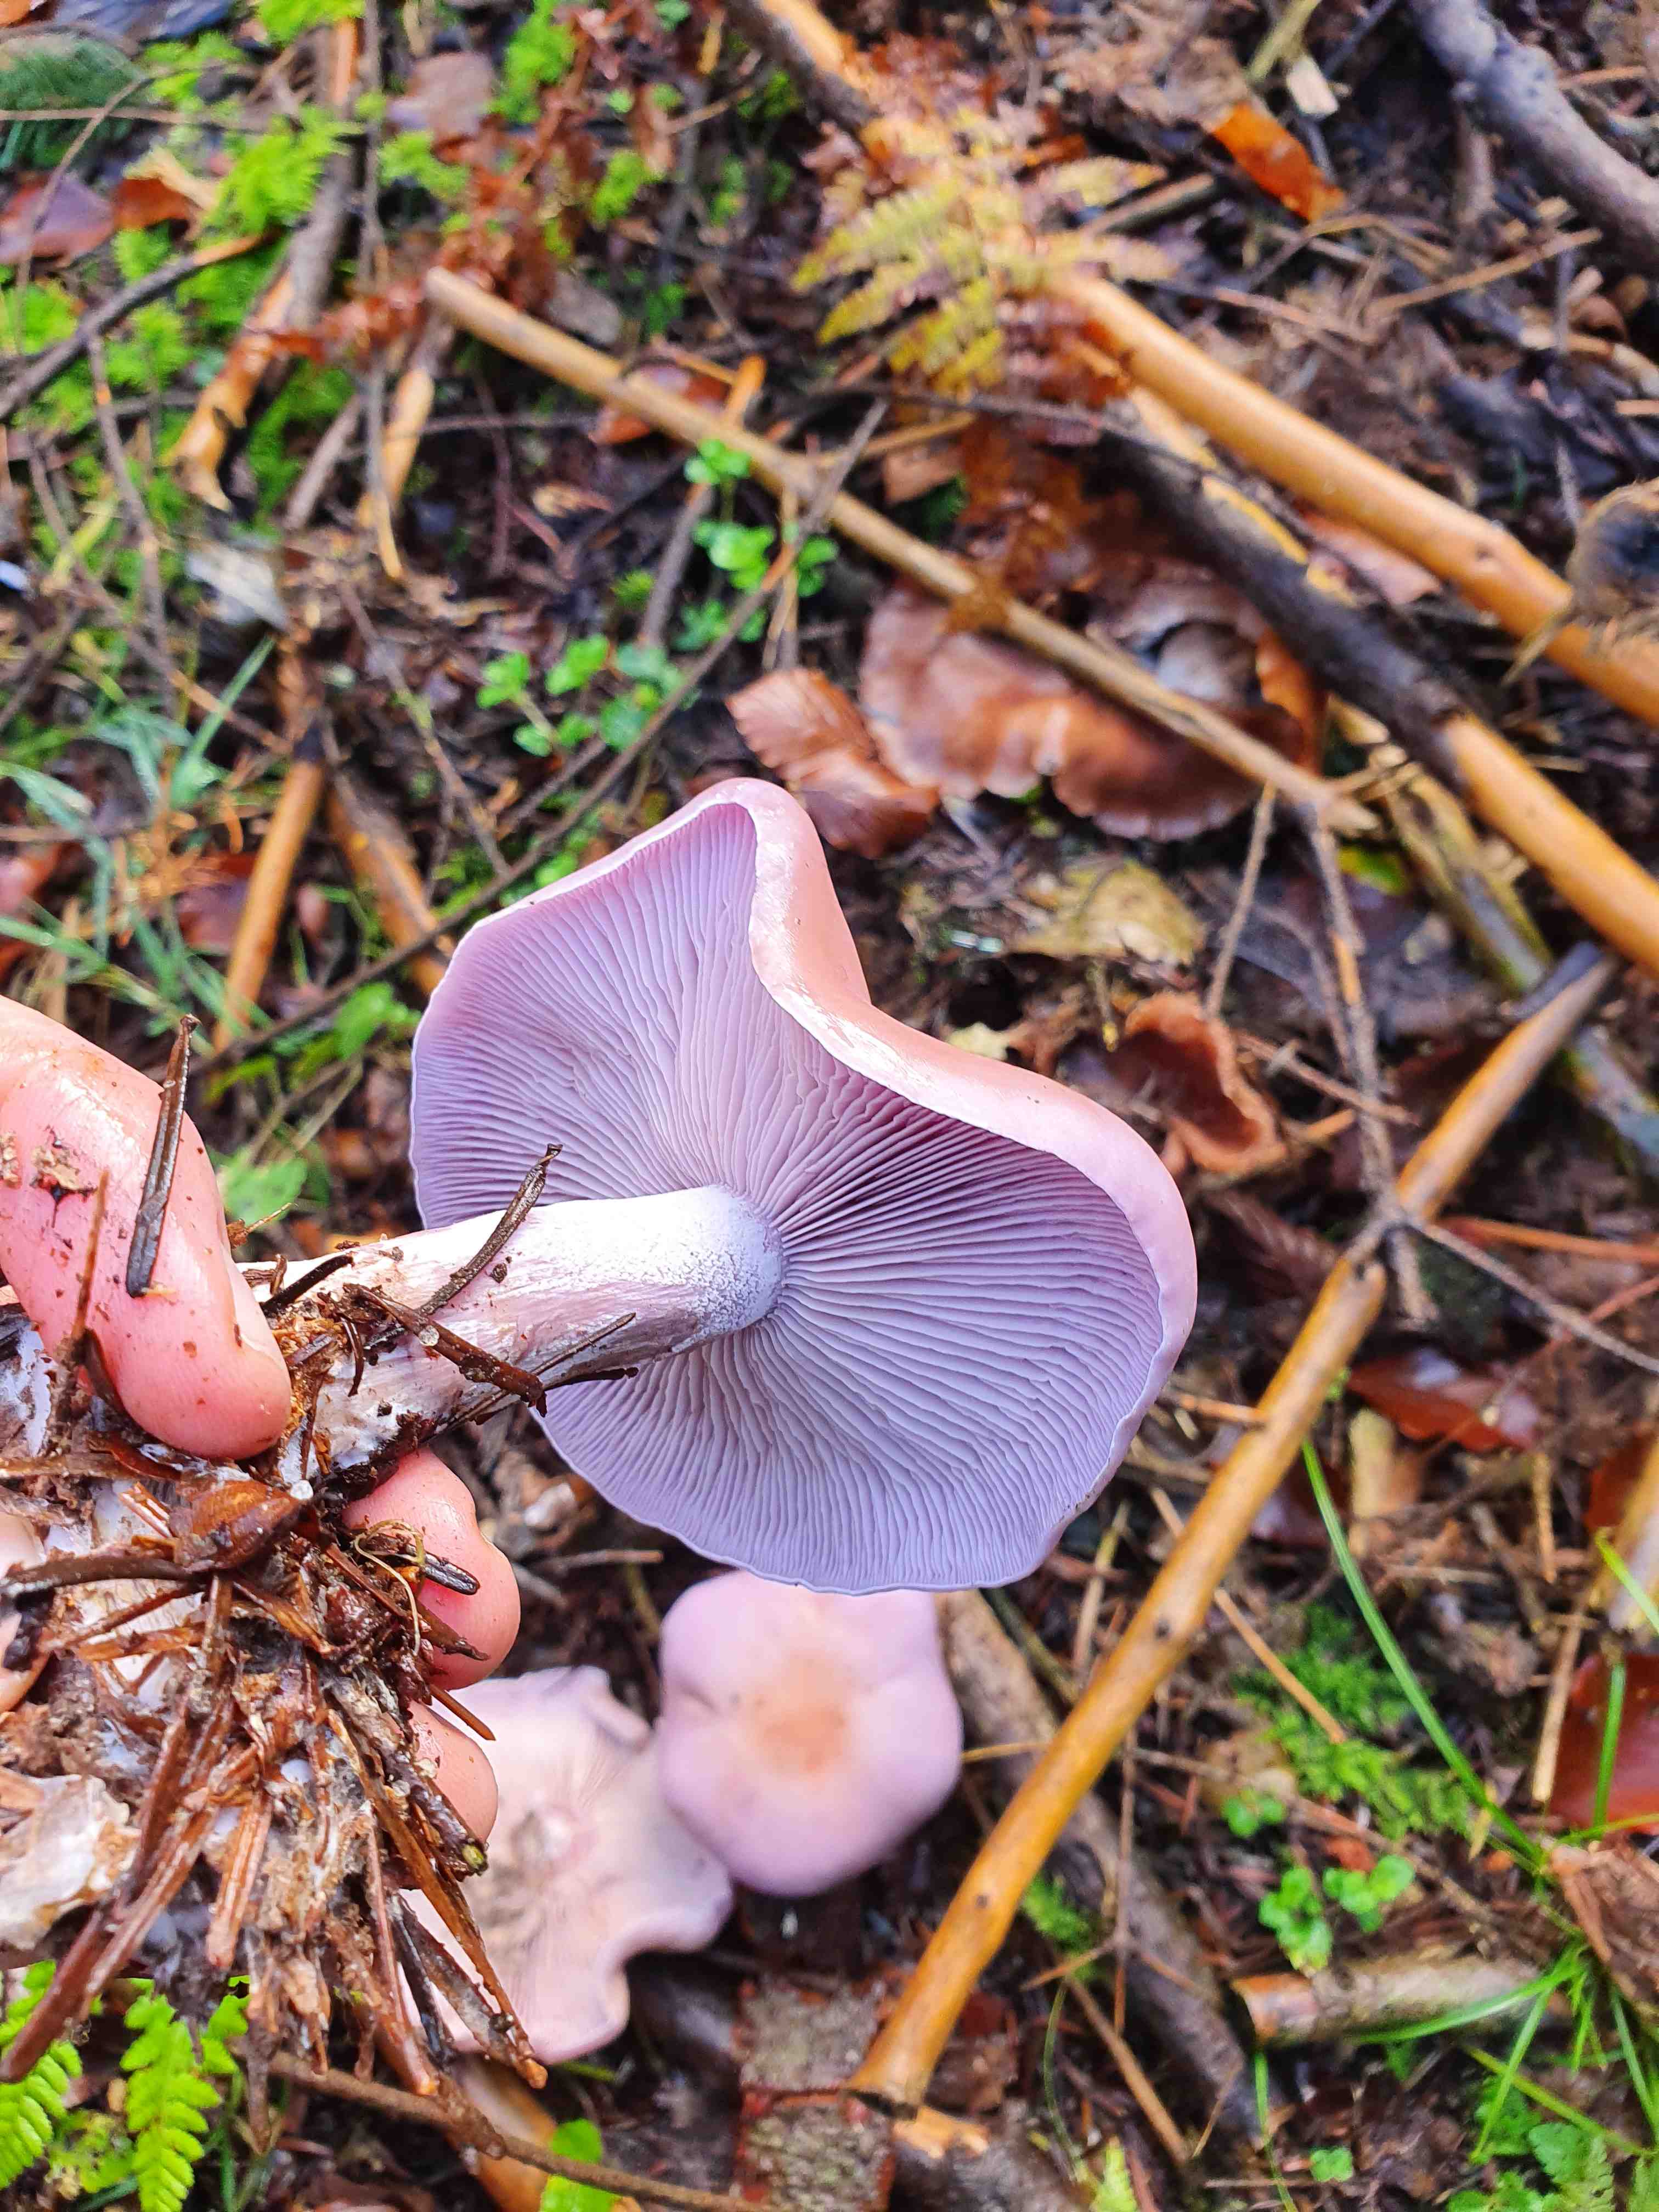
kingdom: Fungi
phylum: Basidiomycota
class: Agaricomycetes
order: Agaricales
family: Tricholomataceae
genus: Lepista
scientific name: Lepista nuda
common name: violet hekseringshat
